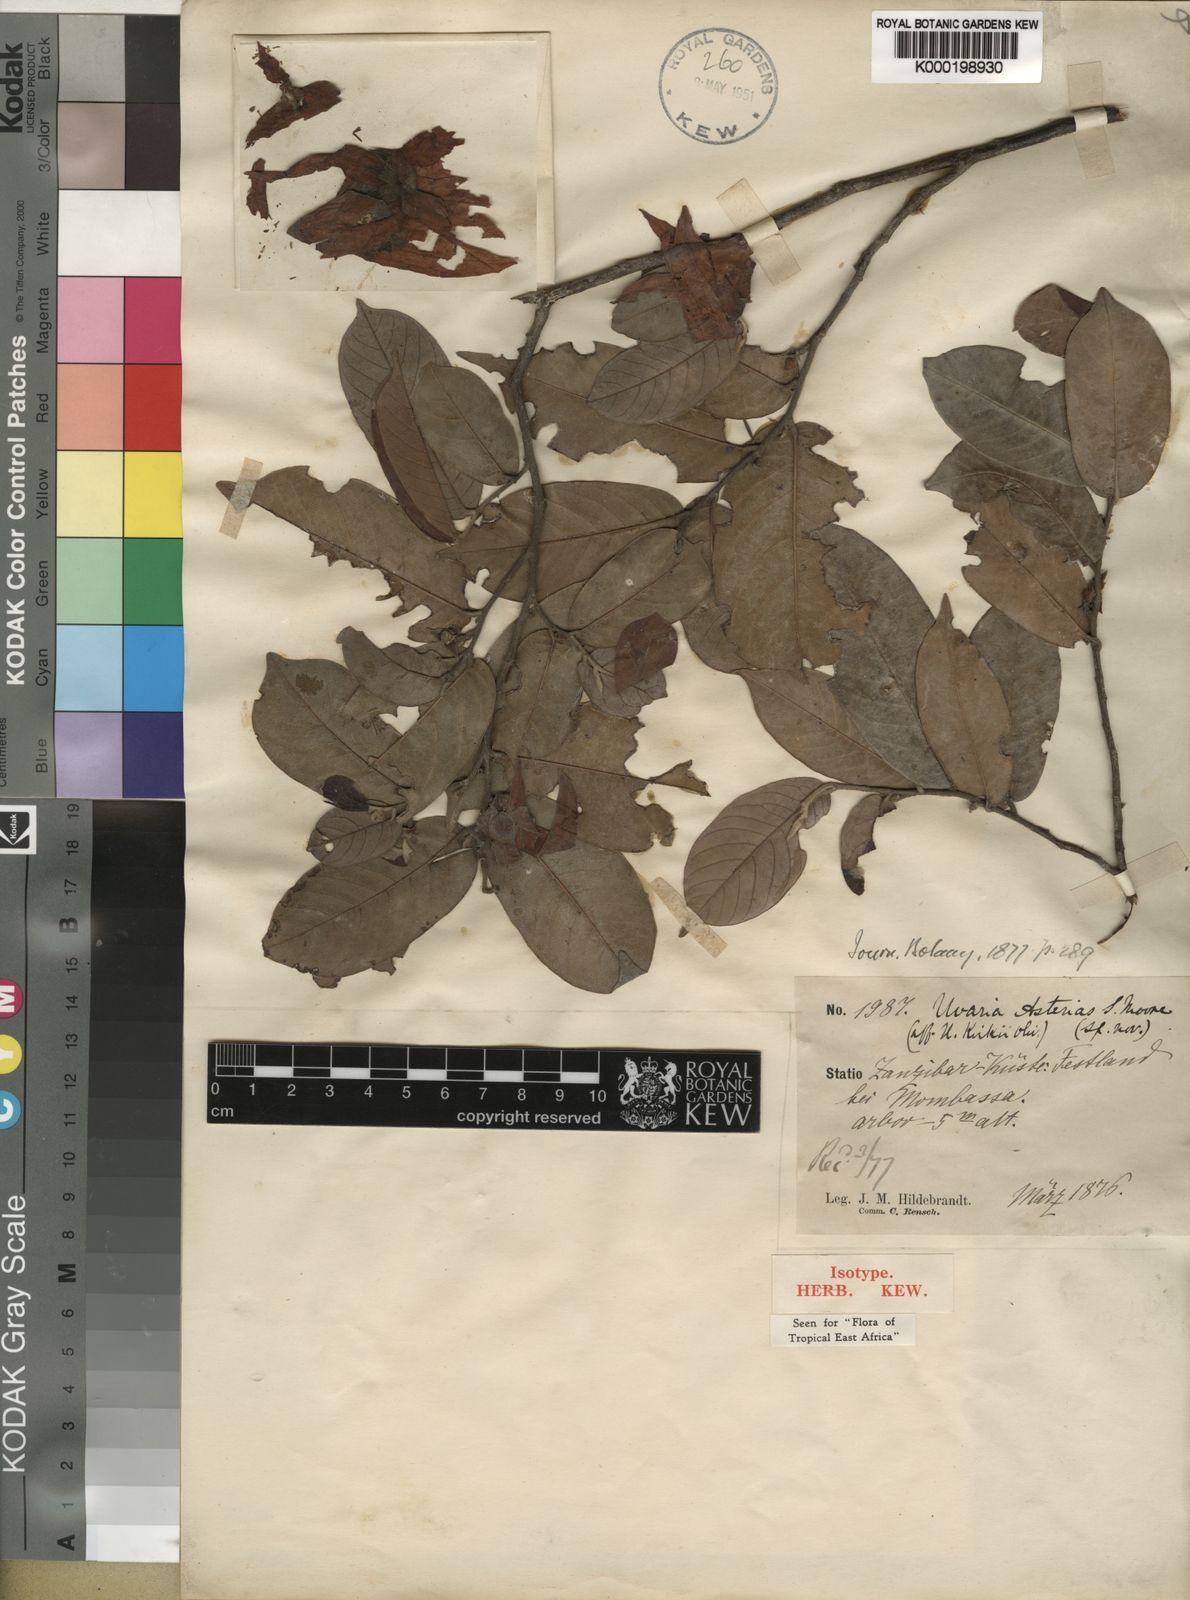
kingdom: Plantae
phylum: Tracheophyta
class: Magnoliopsida
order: Magnoliales
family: Annonaceae
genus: Asteranthe
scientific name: Asteranthe asterias
